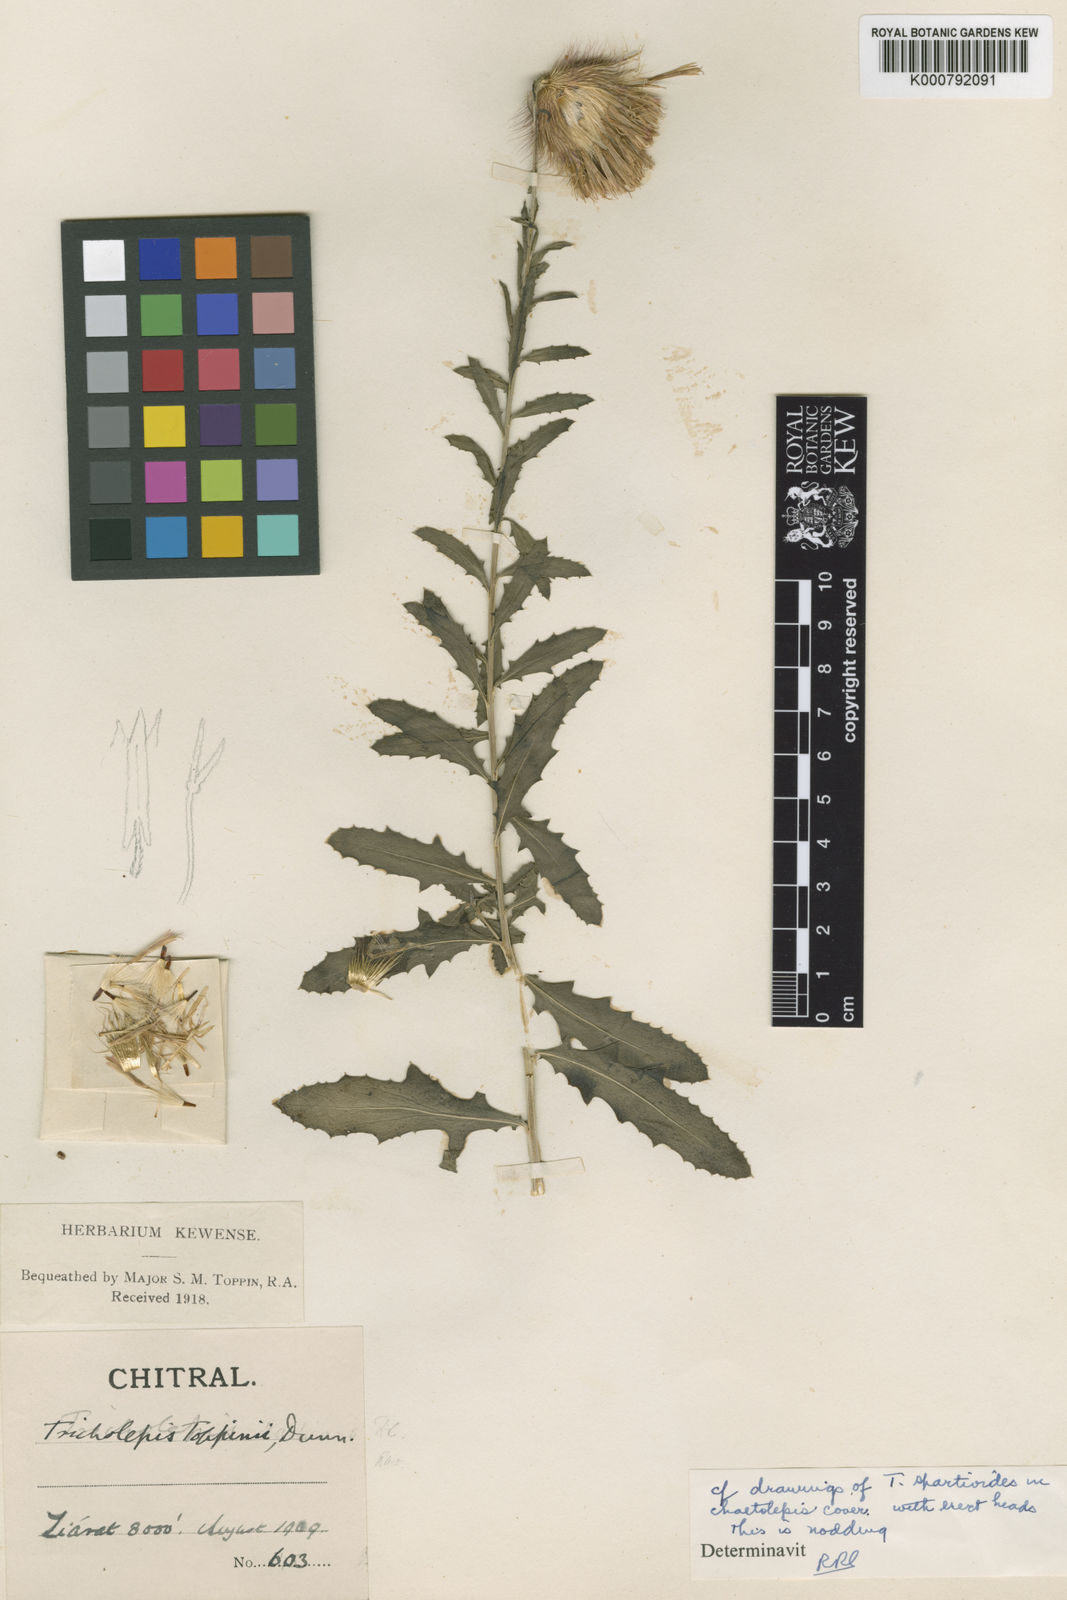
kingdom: Plantae
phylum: Tracheophyta
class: Magnoliopsida
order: Asterales
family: Asteraceae
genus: Tricholepis
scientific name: Tricholepis chaetolepis
